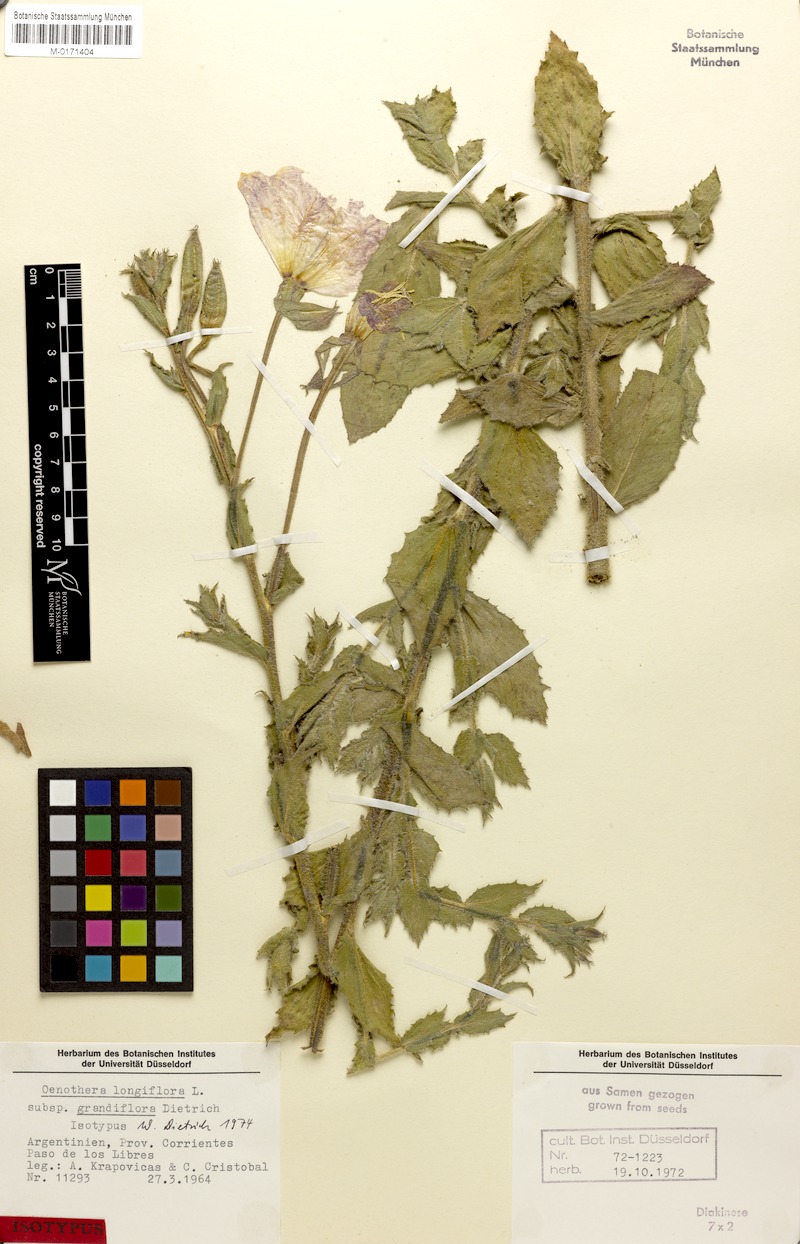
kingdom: Plantae
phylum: Tracheophyta
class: Magnoliopsida
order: Myrtales
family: Onagraceae
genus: Oenothera
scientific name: Oenothera longiflora
